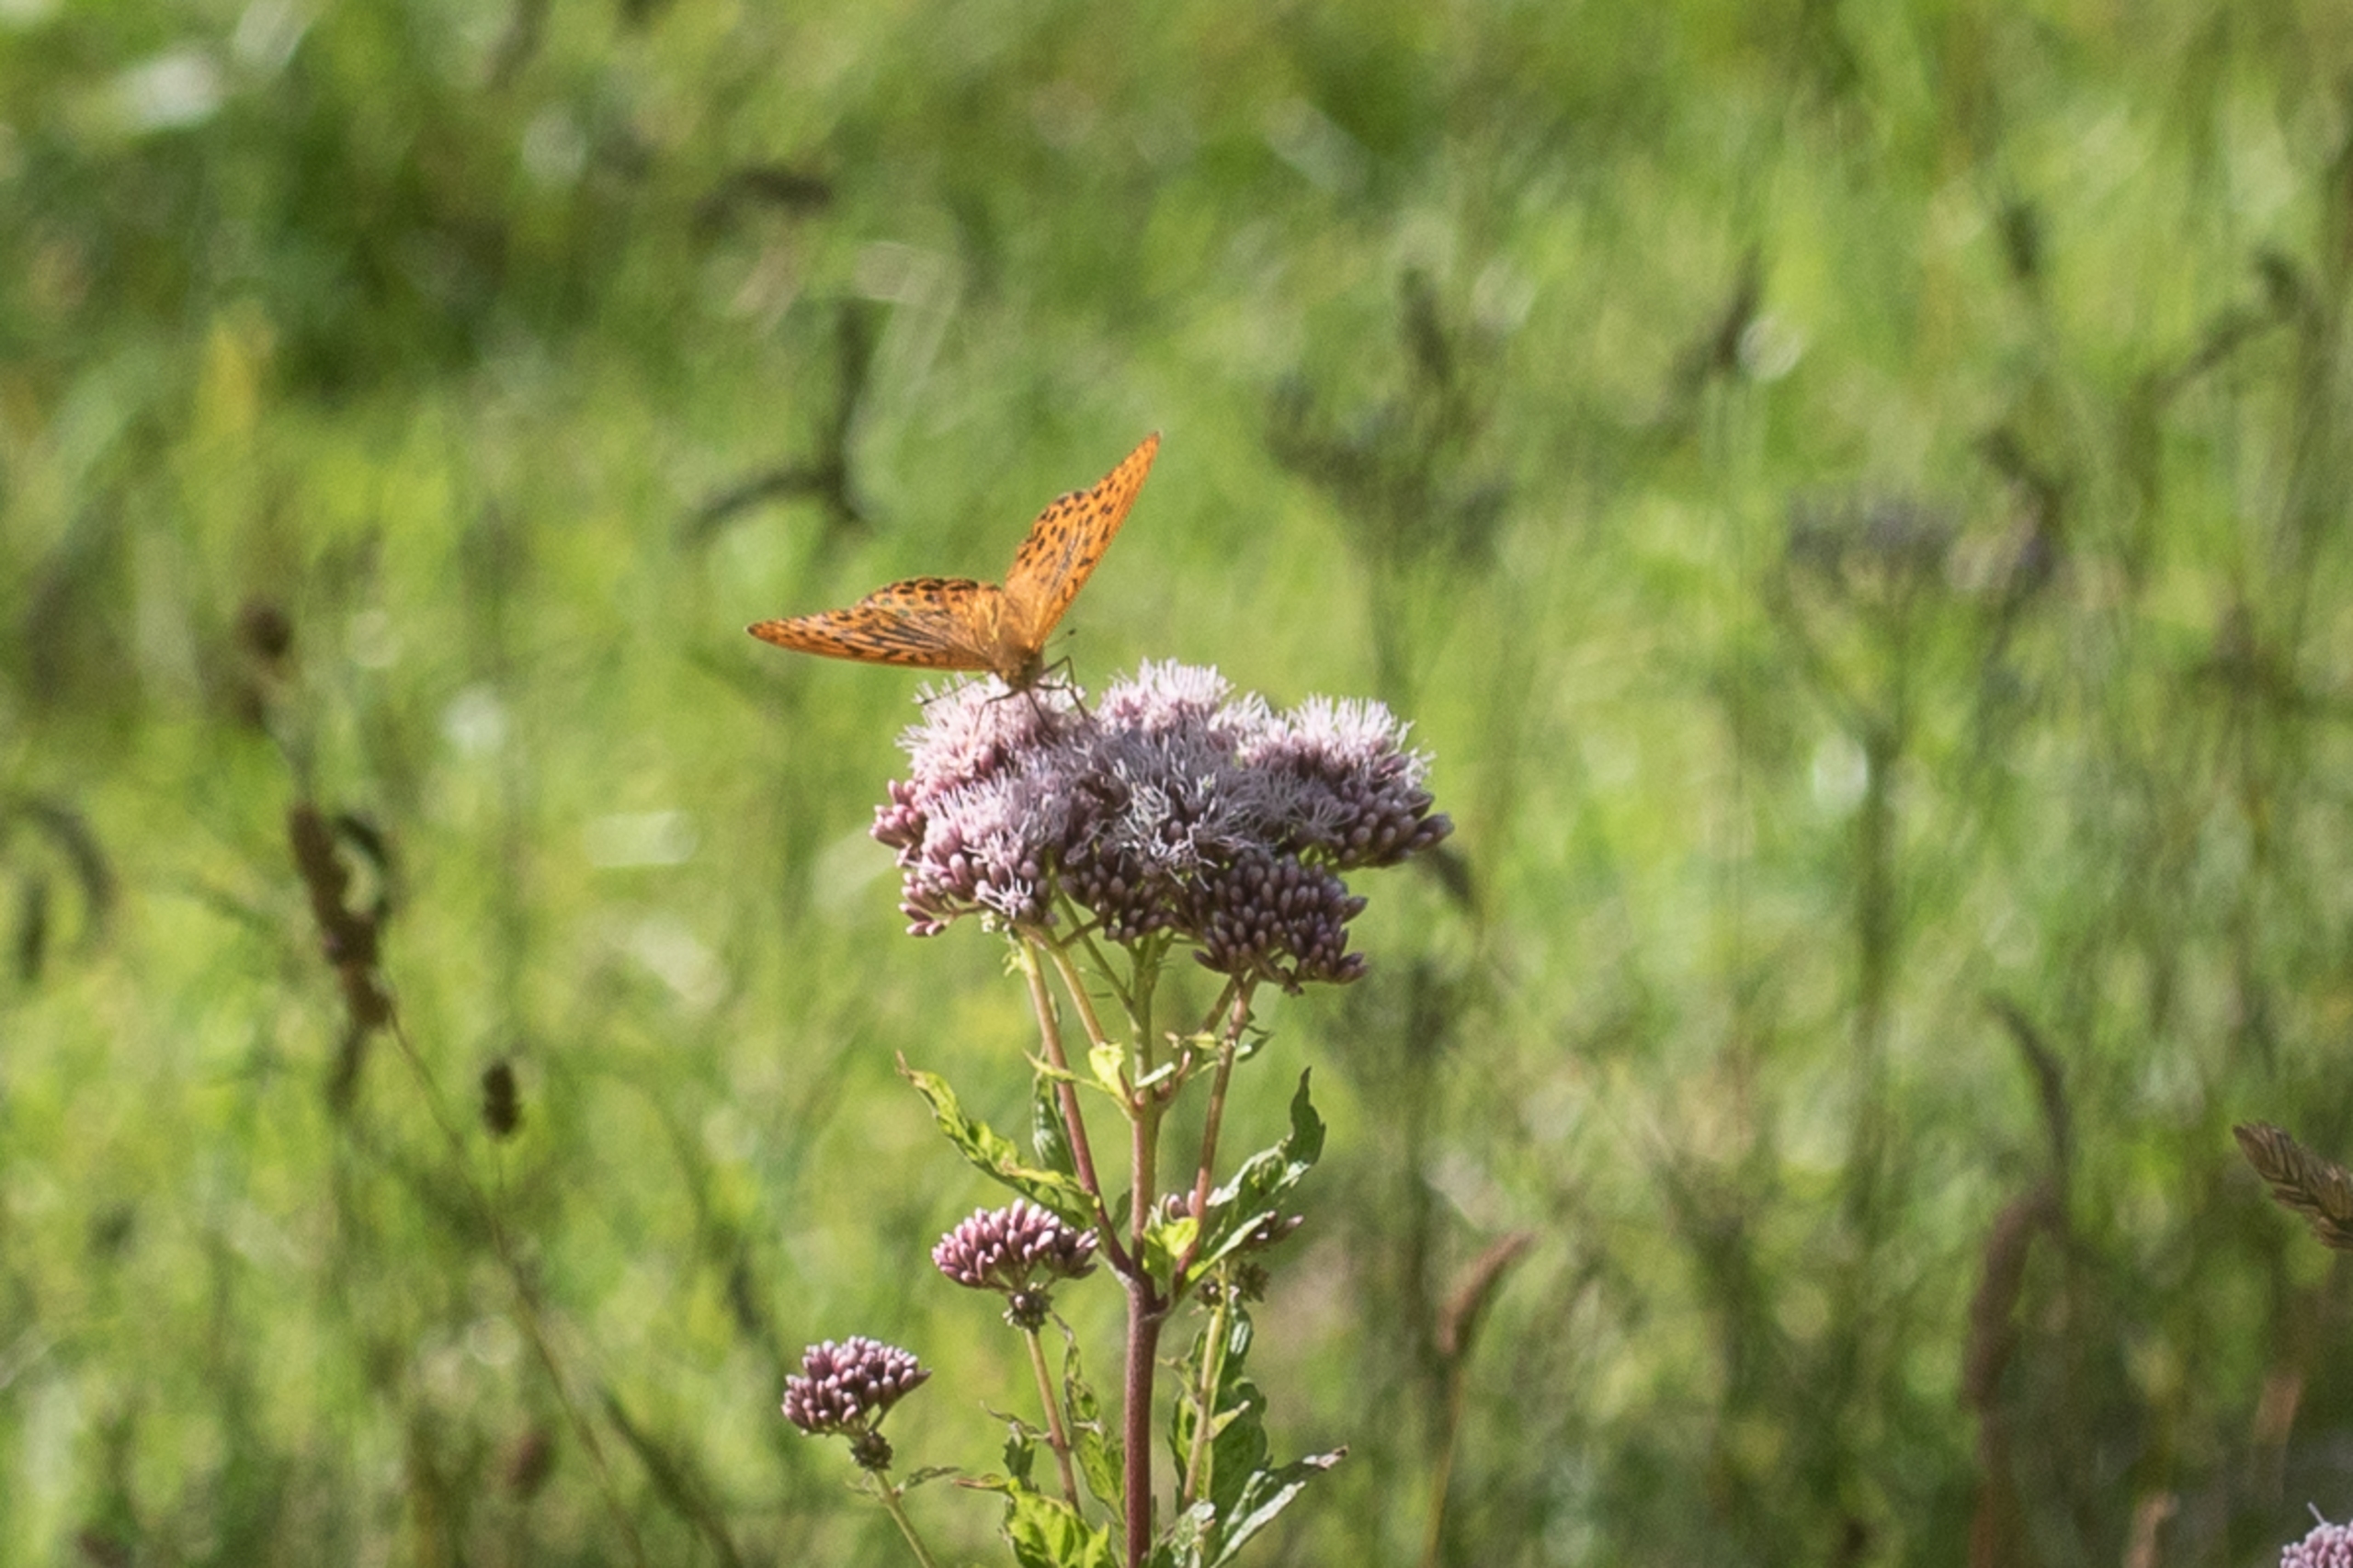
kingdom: Plantae
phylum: Tracheophyta
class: Magnoliopsida
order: Asterales
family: Asteraceae
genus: Eupatorium
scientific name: Eupatorium cannabinum
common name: Hjortetrøst
